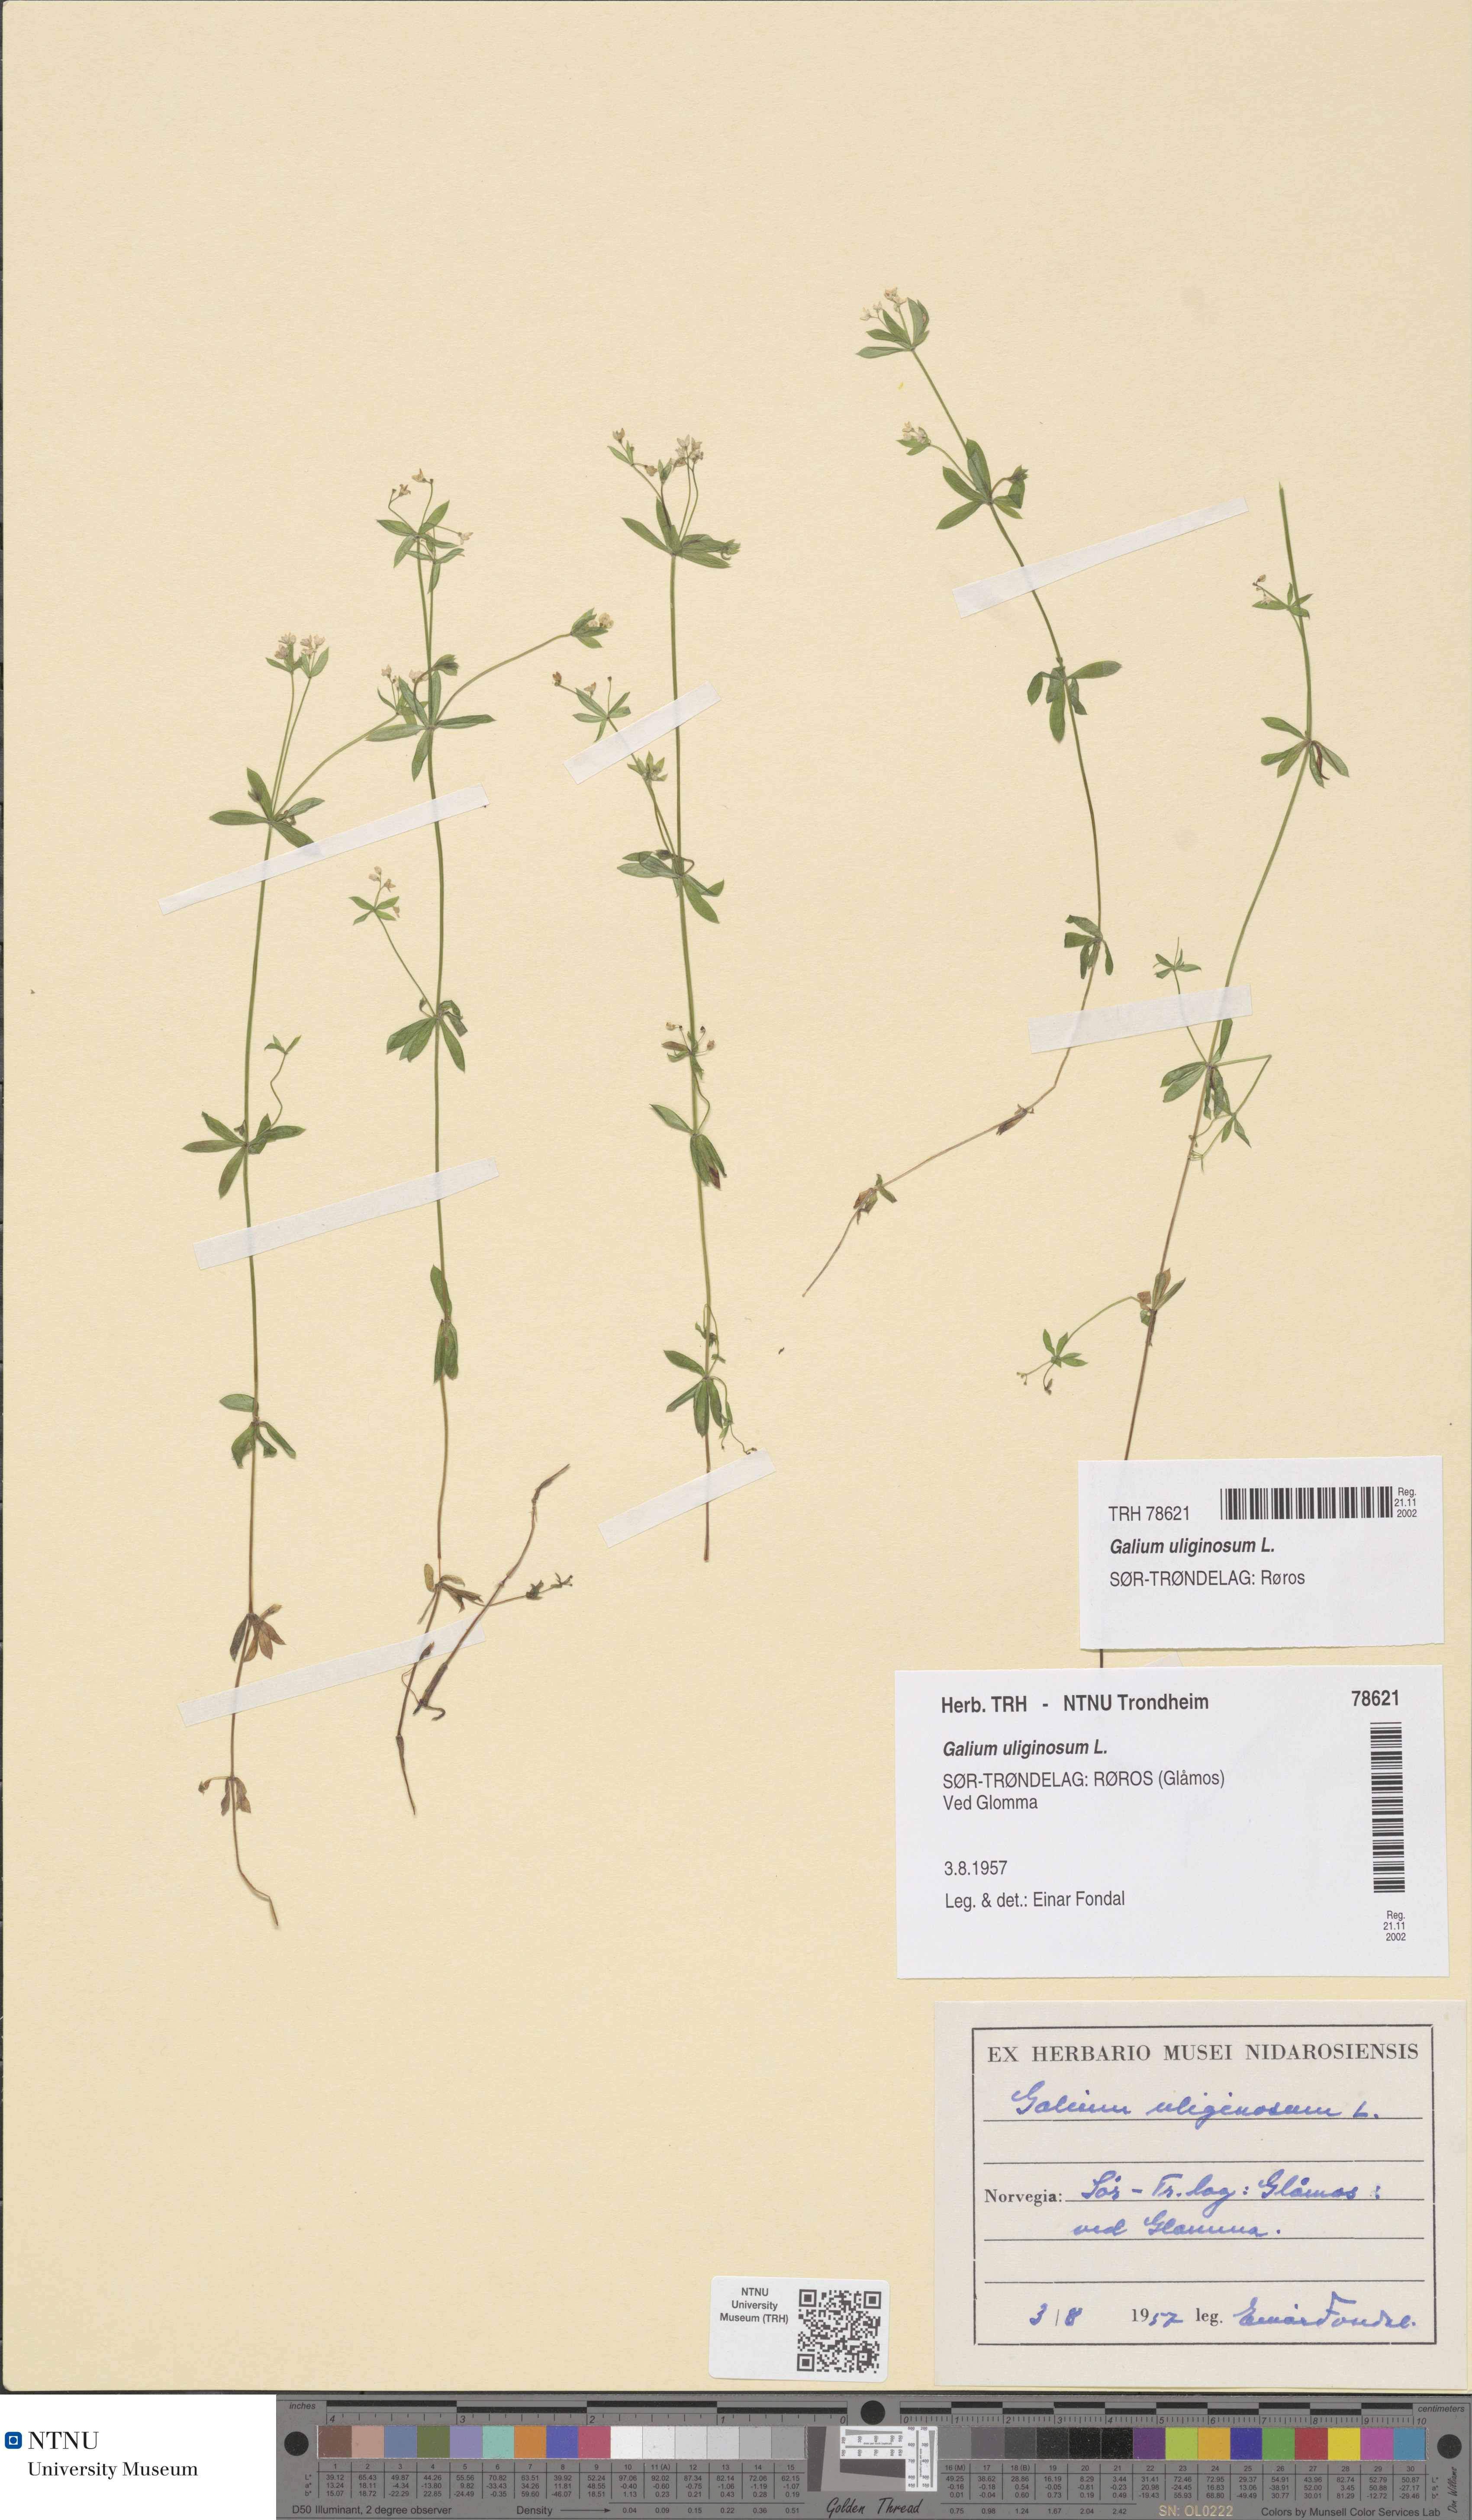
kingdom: Plantae
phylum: Tracheophyta
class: Magnoliopsida
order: Gentianales
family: Rubiaceae
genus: Galium
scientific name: Galium uliginosum
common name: Fen bedstraw
